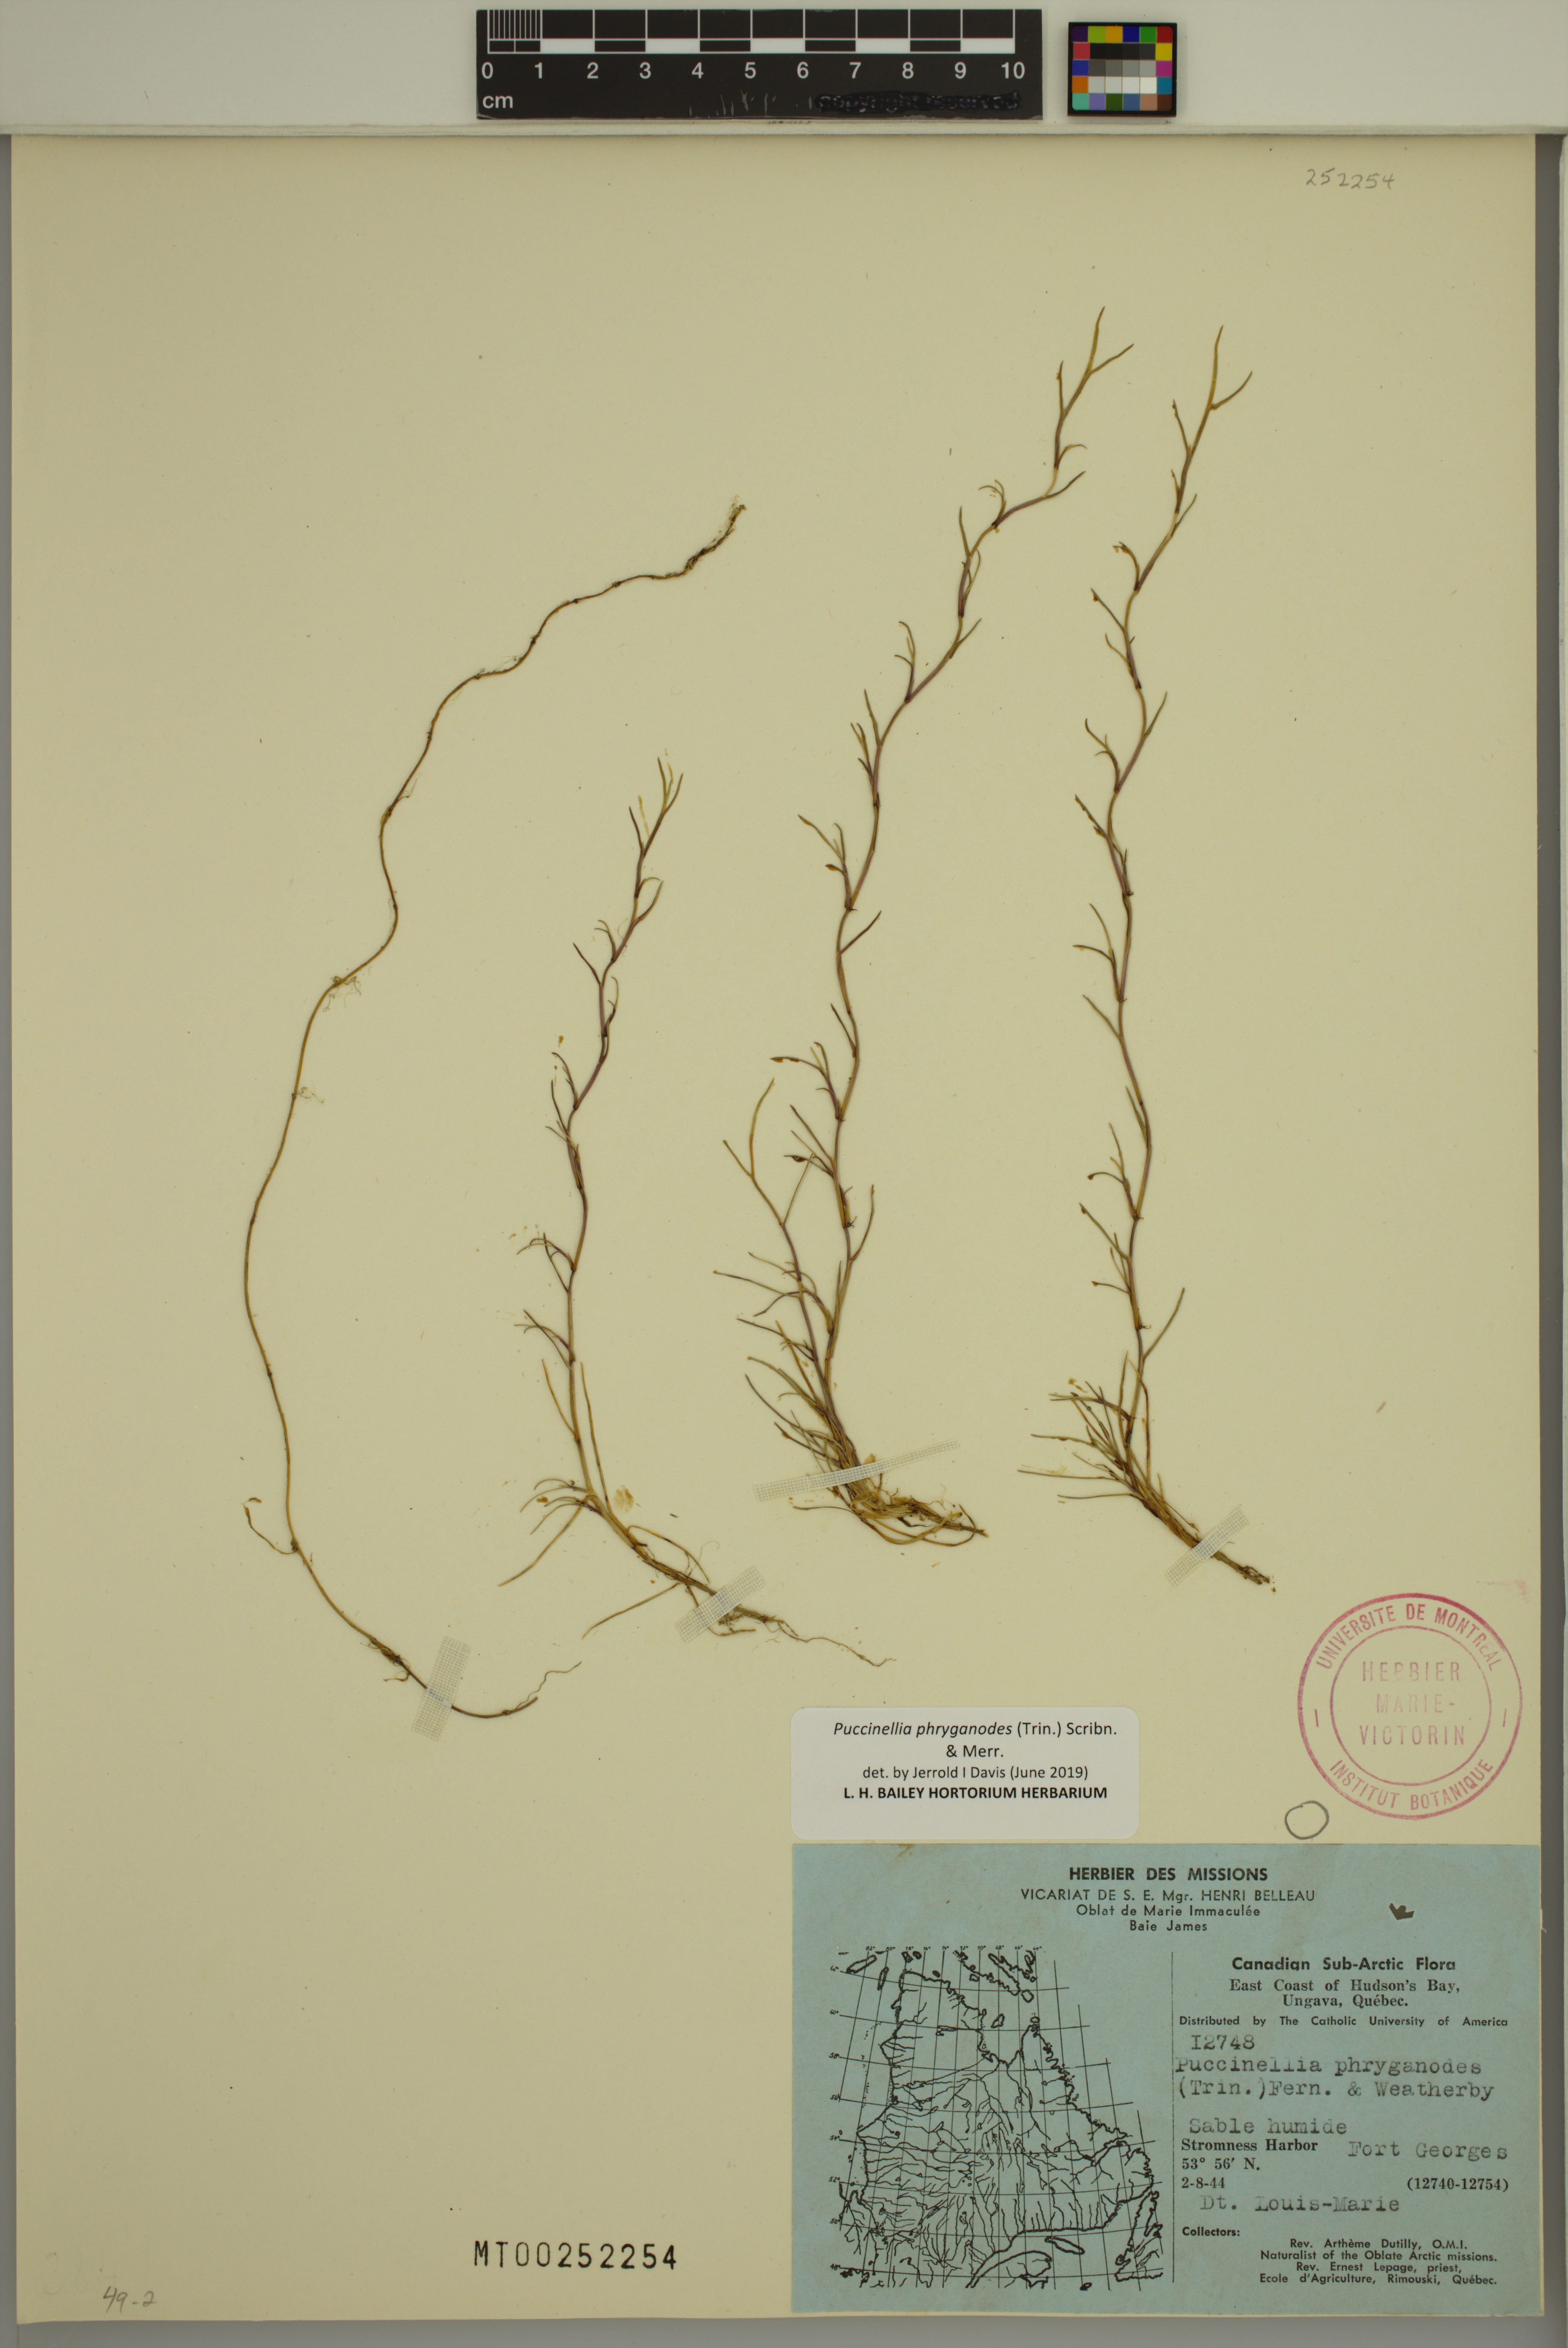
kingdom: Plantae
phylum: Tracheophyta
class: Liliopsida
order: Poales
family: Poaceae
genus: Puccinellia
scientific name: Puccinellia phryganodes
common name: Creeping alkaligrass
